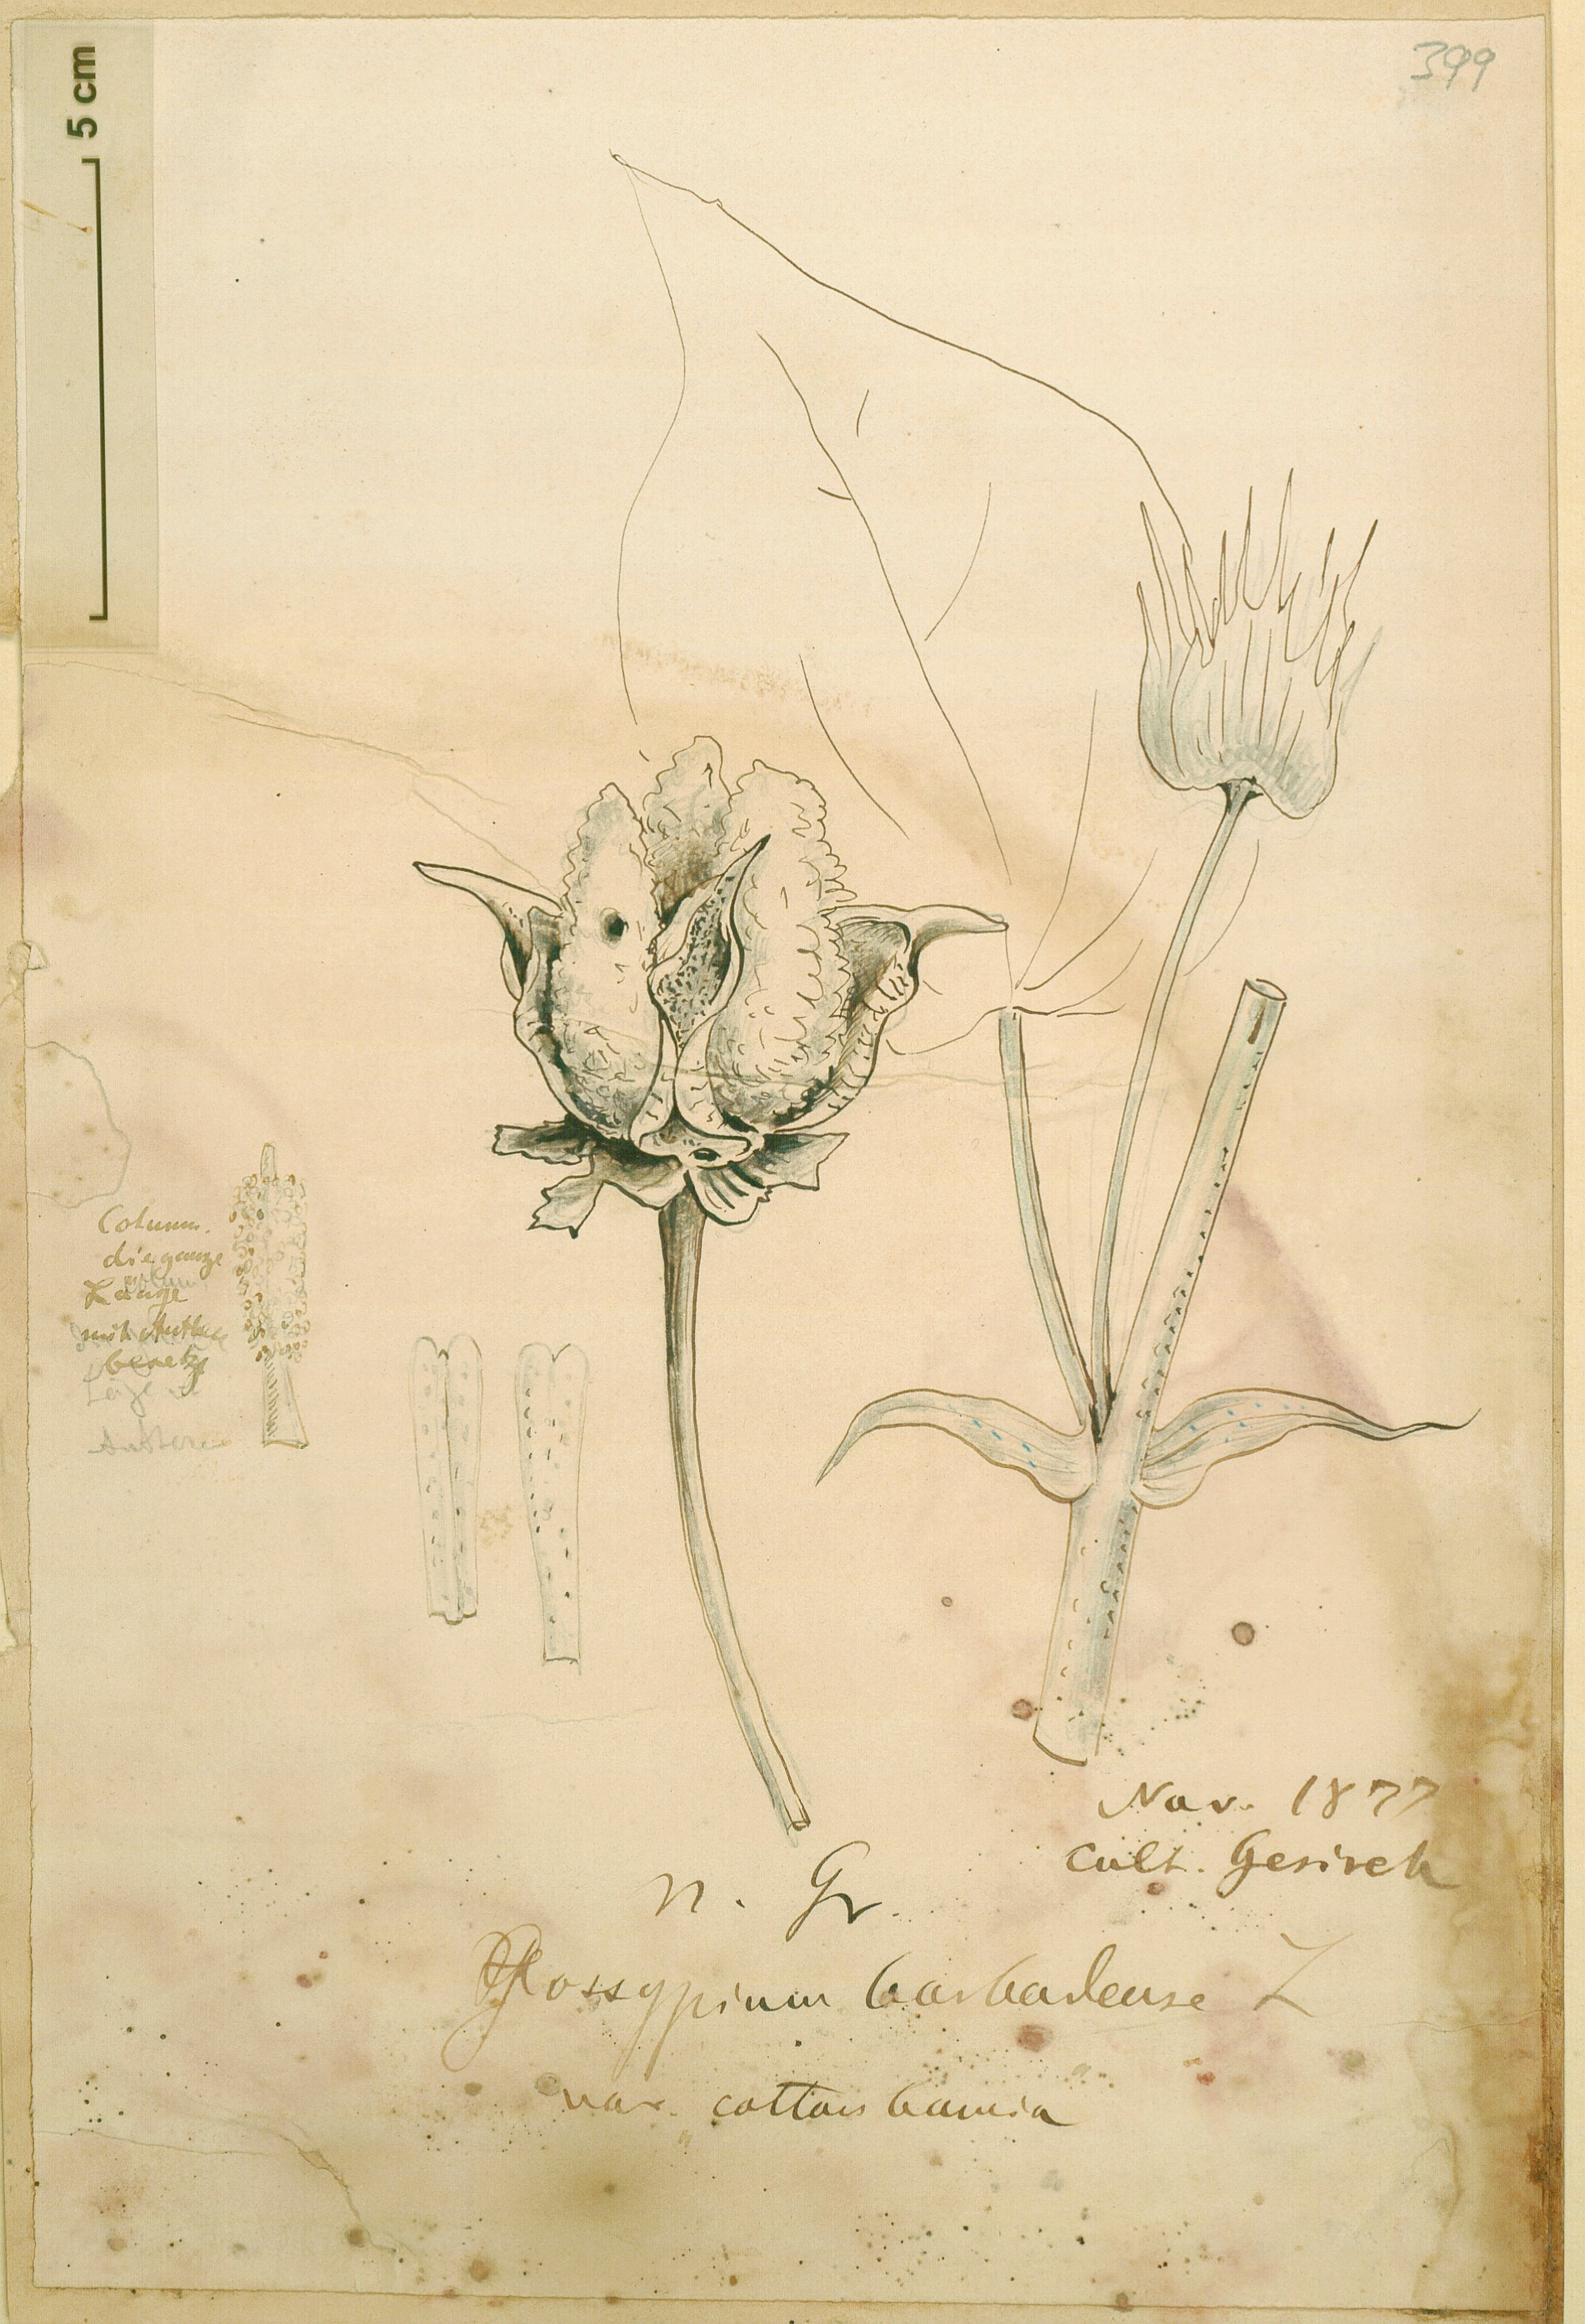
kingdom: Plantae
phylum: Tracheophyta
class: Magnoliopsida
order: Malvales
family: Malvaceae
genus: Gossypium
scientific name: Gossypium barbadense
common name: Creole cotton
